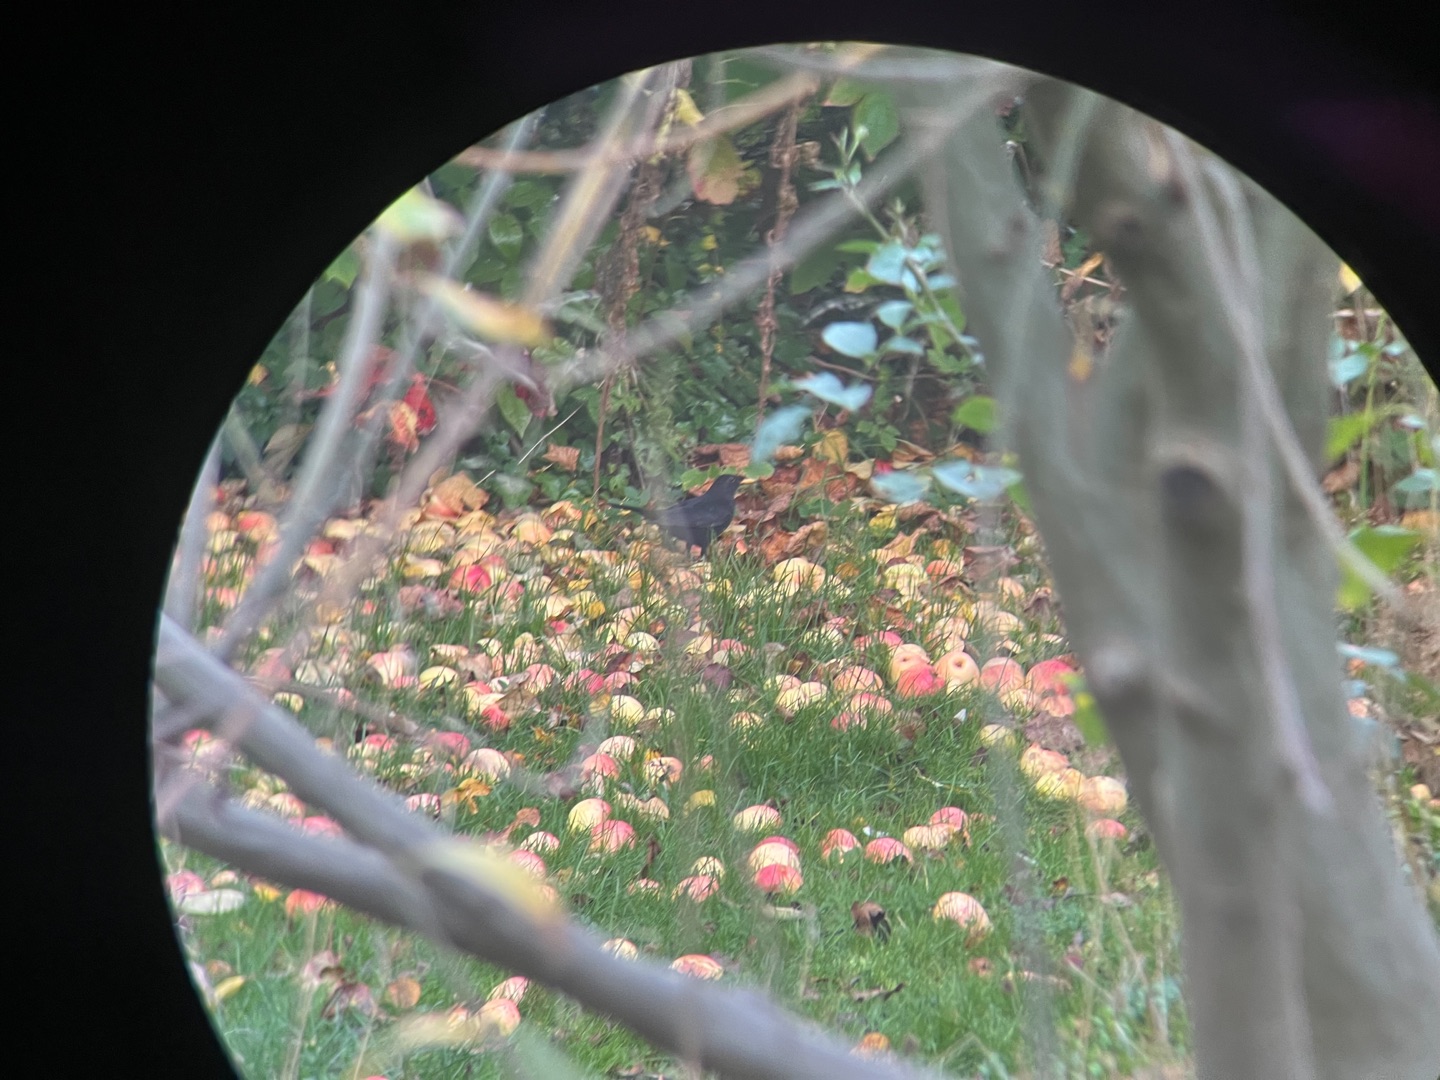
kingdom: Animalia
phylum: Chordata
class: Aves
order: Passeriformes
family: Turdidae
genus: Turdus
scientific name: Turdus merula
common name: Solsort
